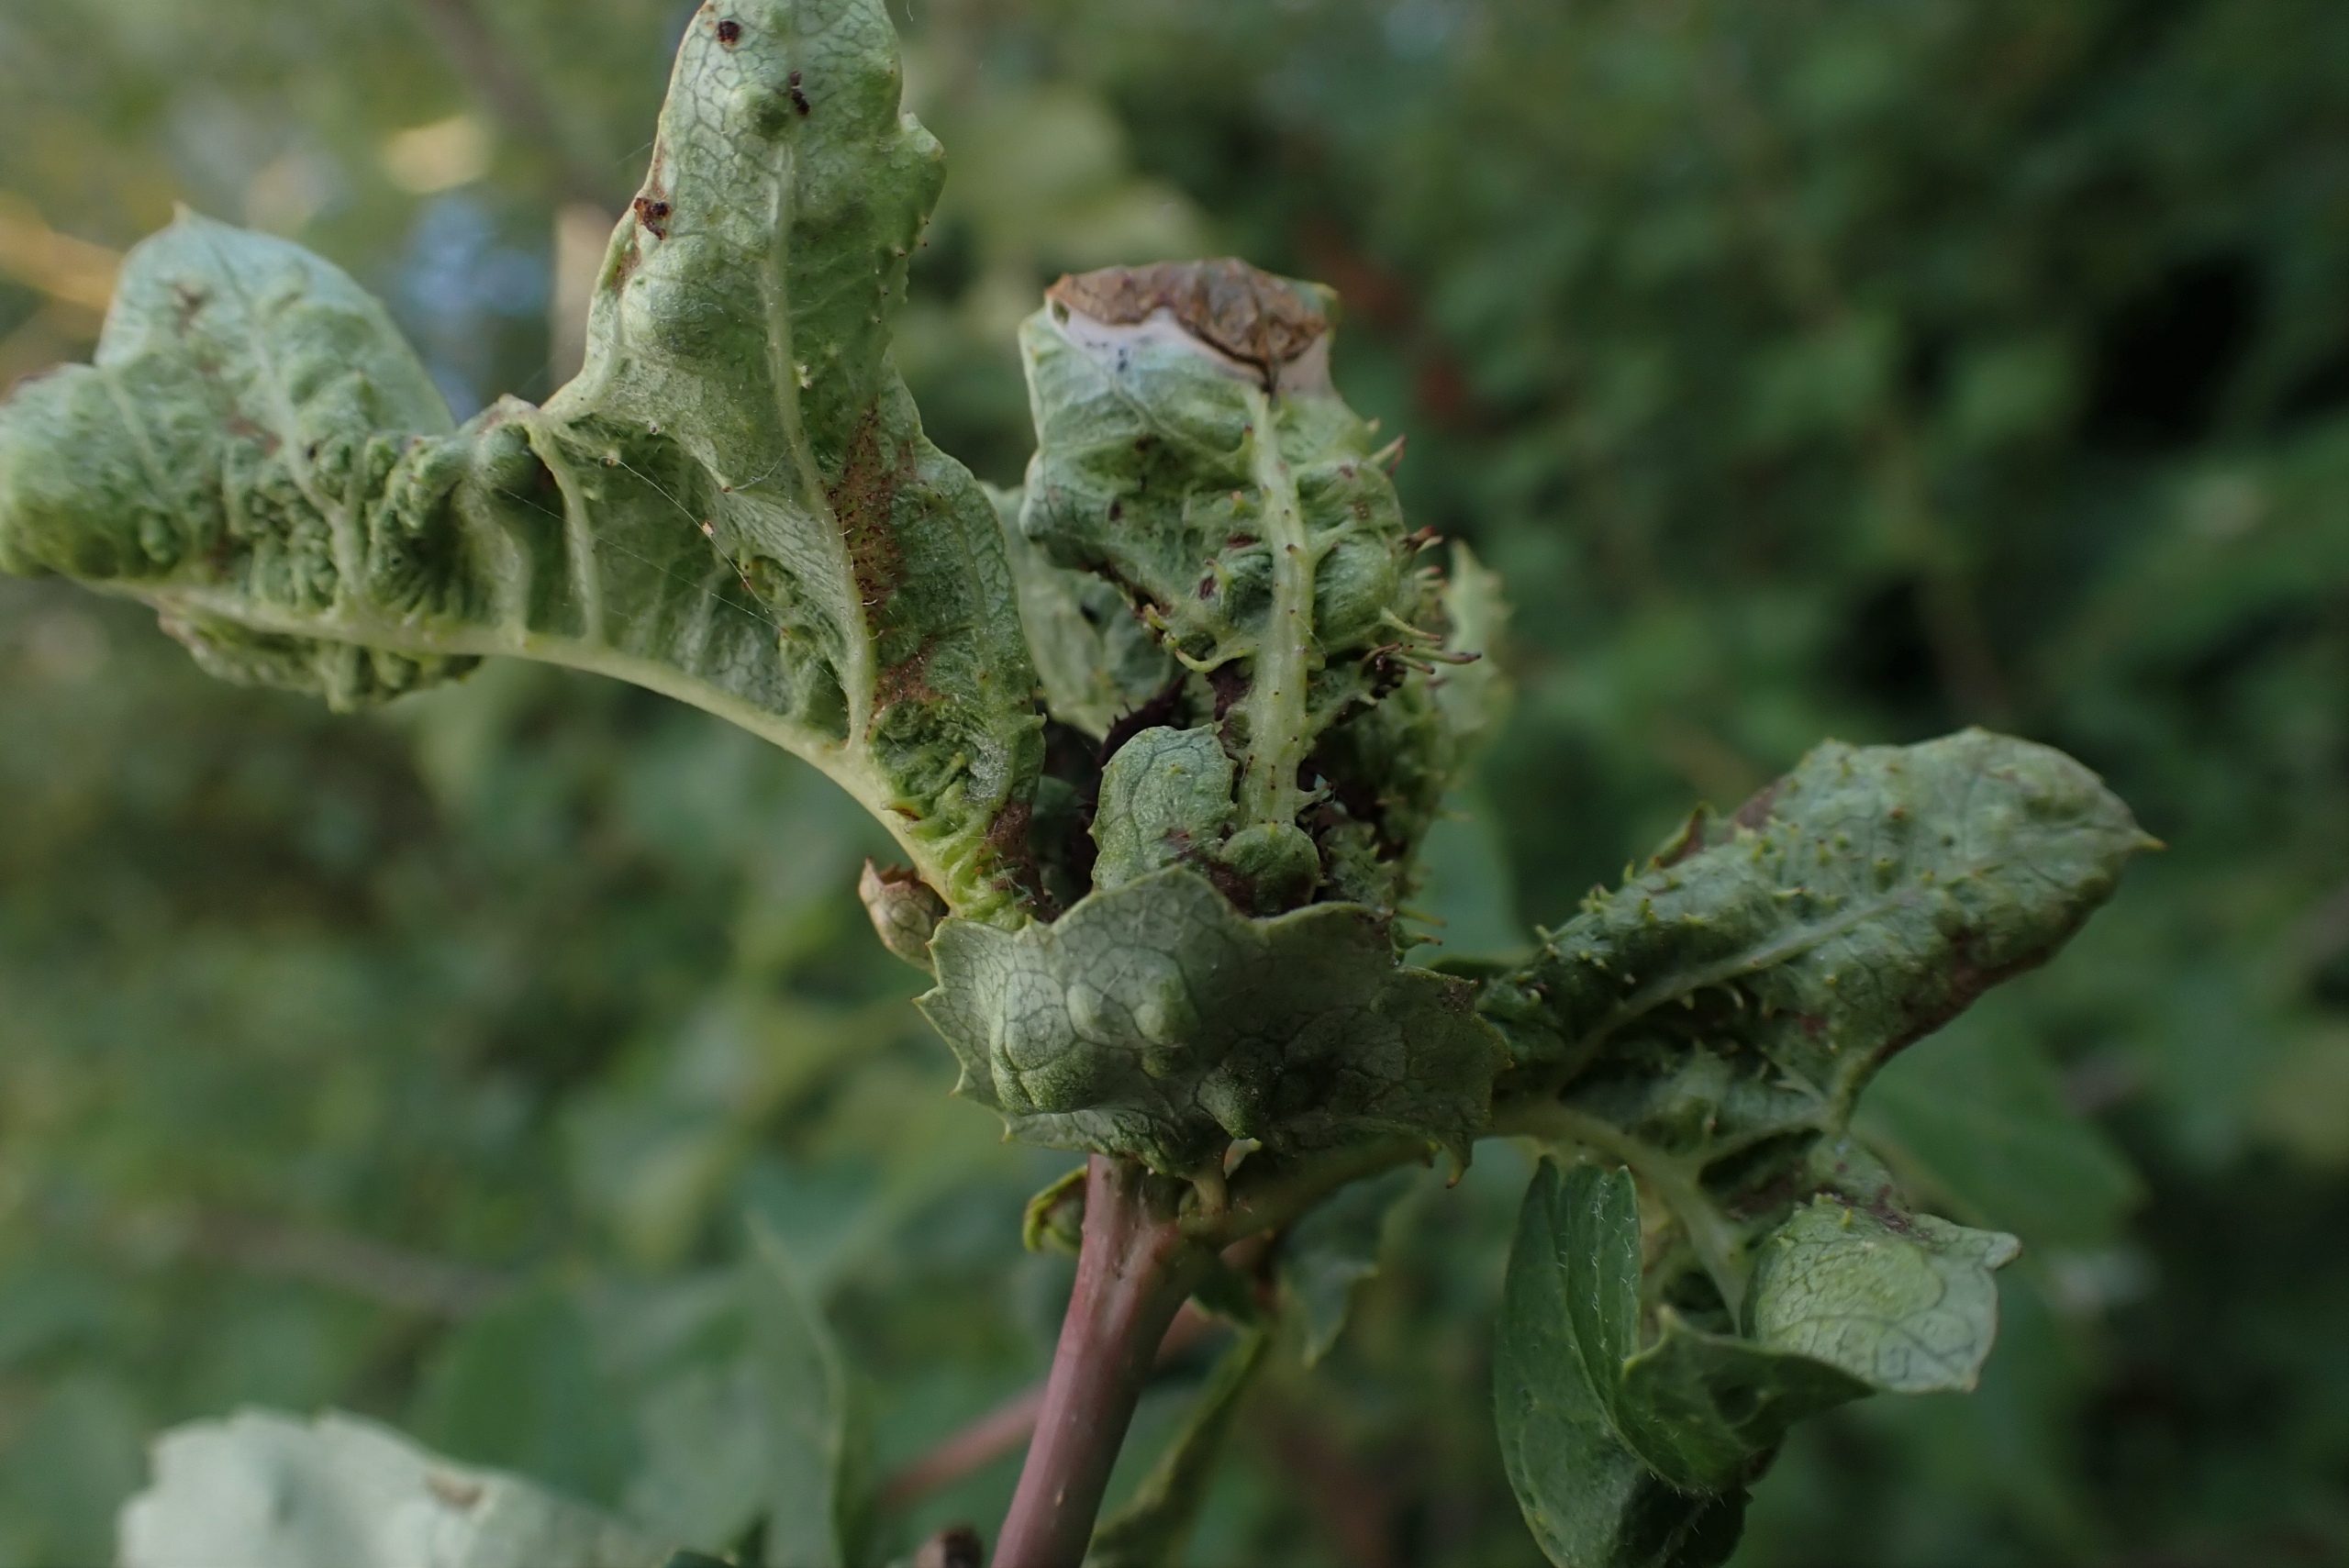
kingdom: Animalia
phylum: Arthropoda
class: Insecta
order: Diptera
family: Cecidomyiidae
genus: Dasineura
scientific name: Dasineura crataegi
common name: Tjørnerosetgalmyg
